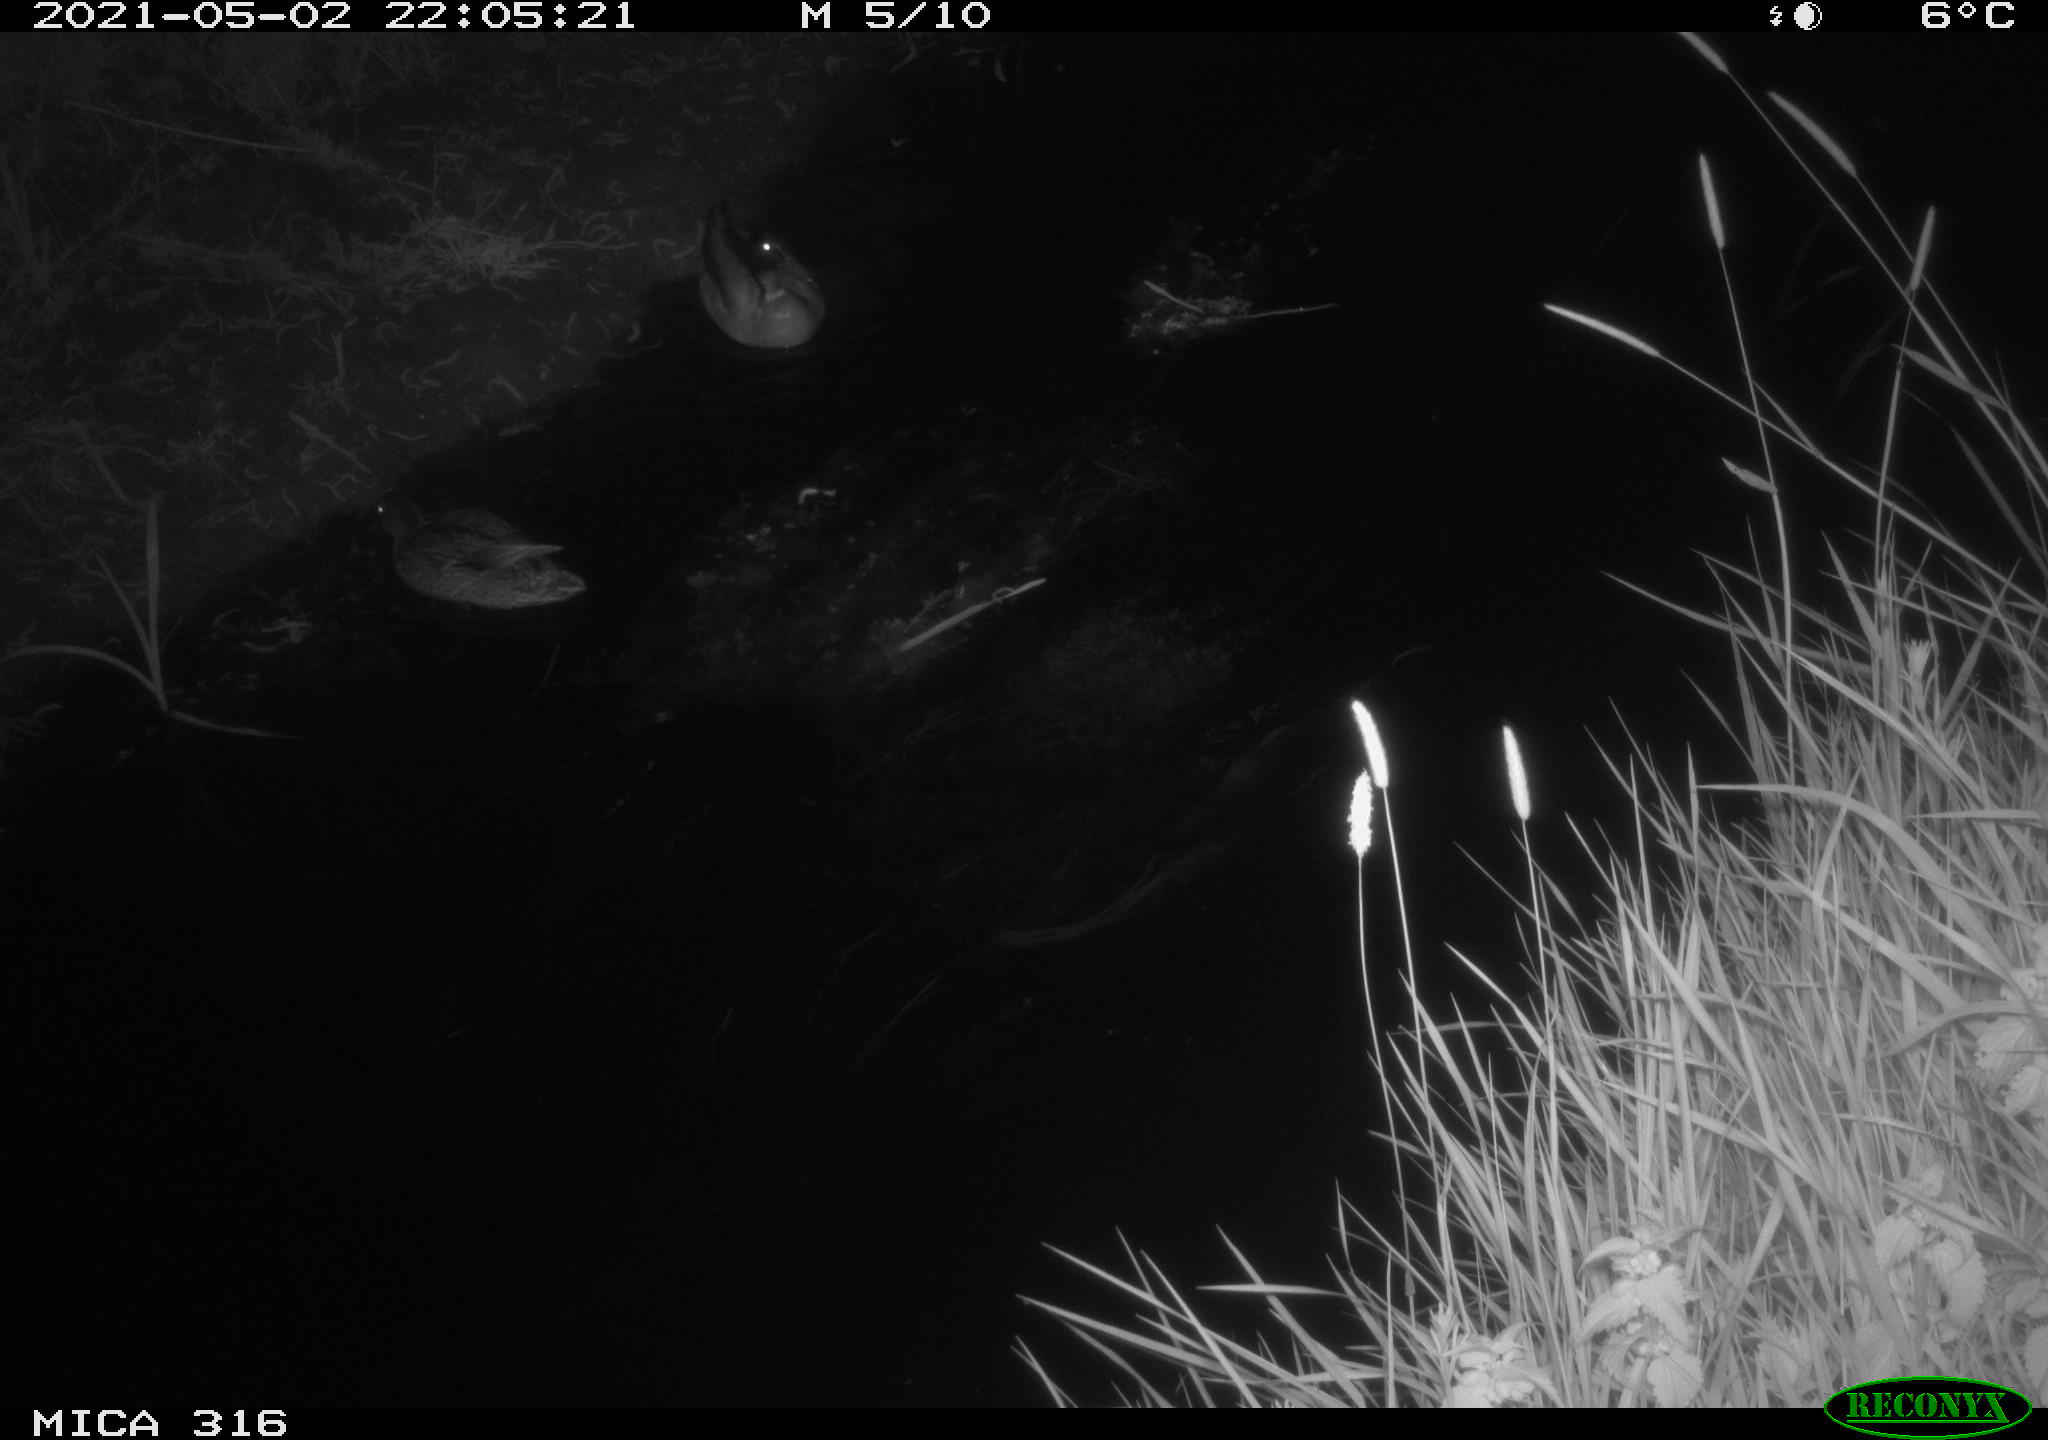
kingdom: Animalia
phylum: Chordata
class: Aves
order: Anseriformes
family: Anatidae
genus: Anas
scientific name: Anas platyrhynchos
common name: Mallard
